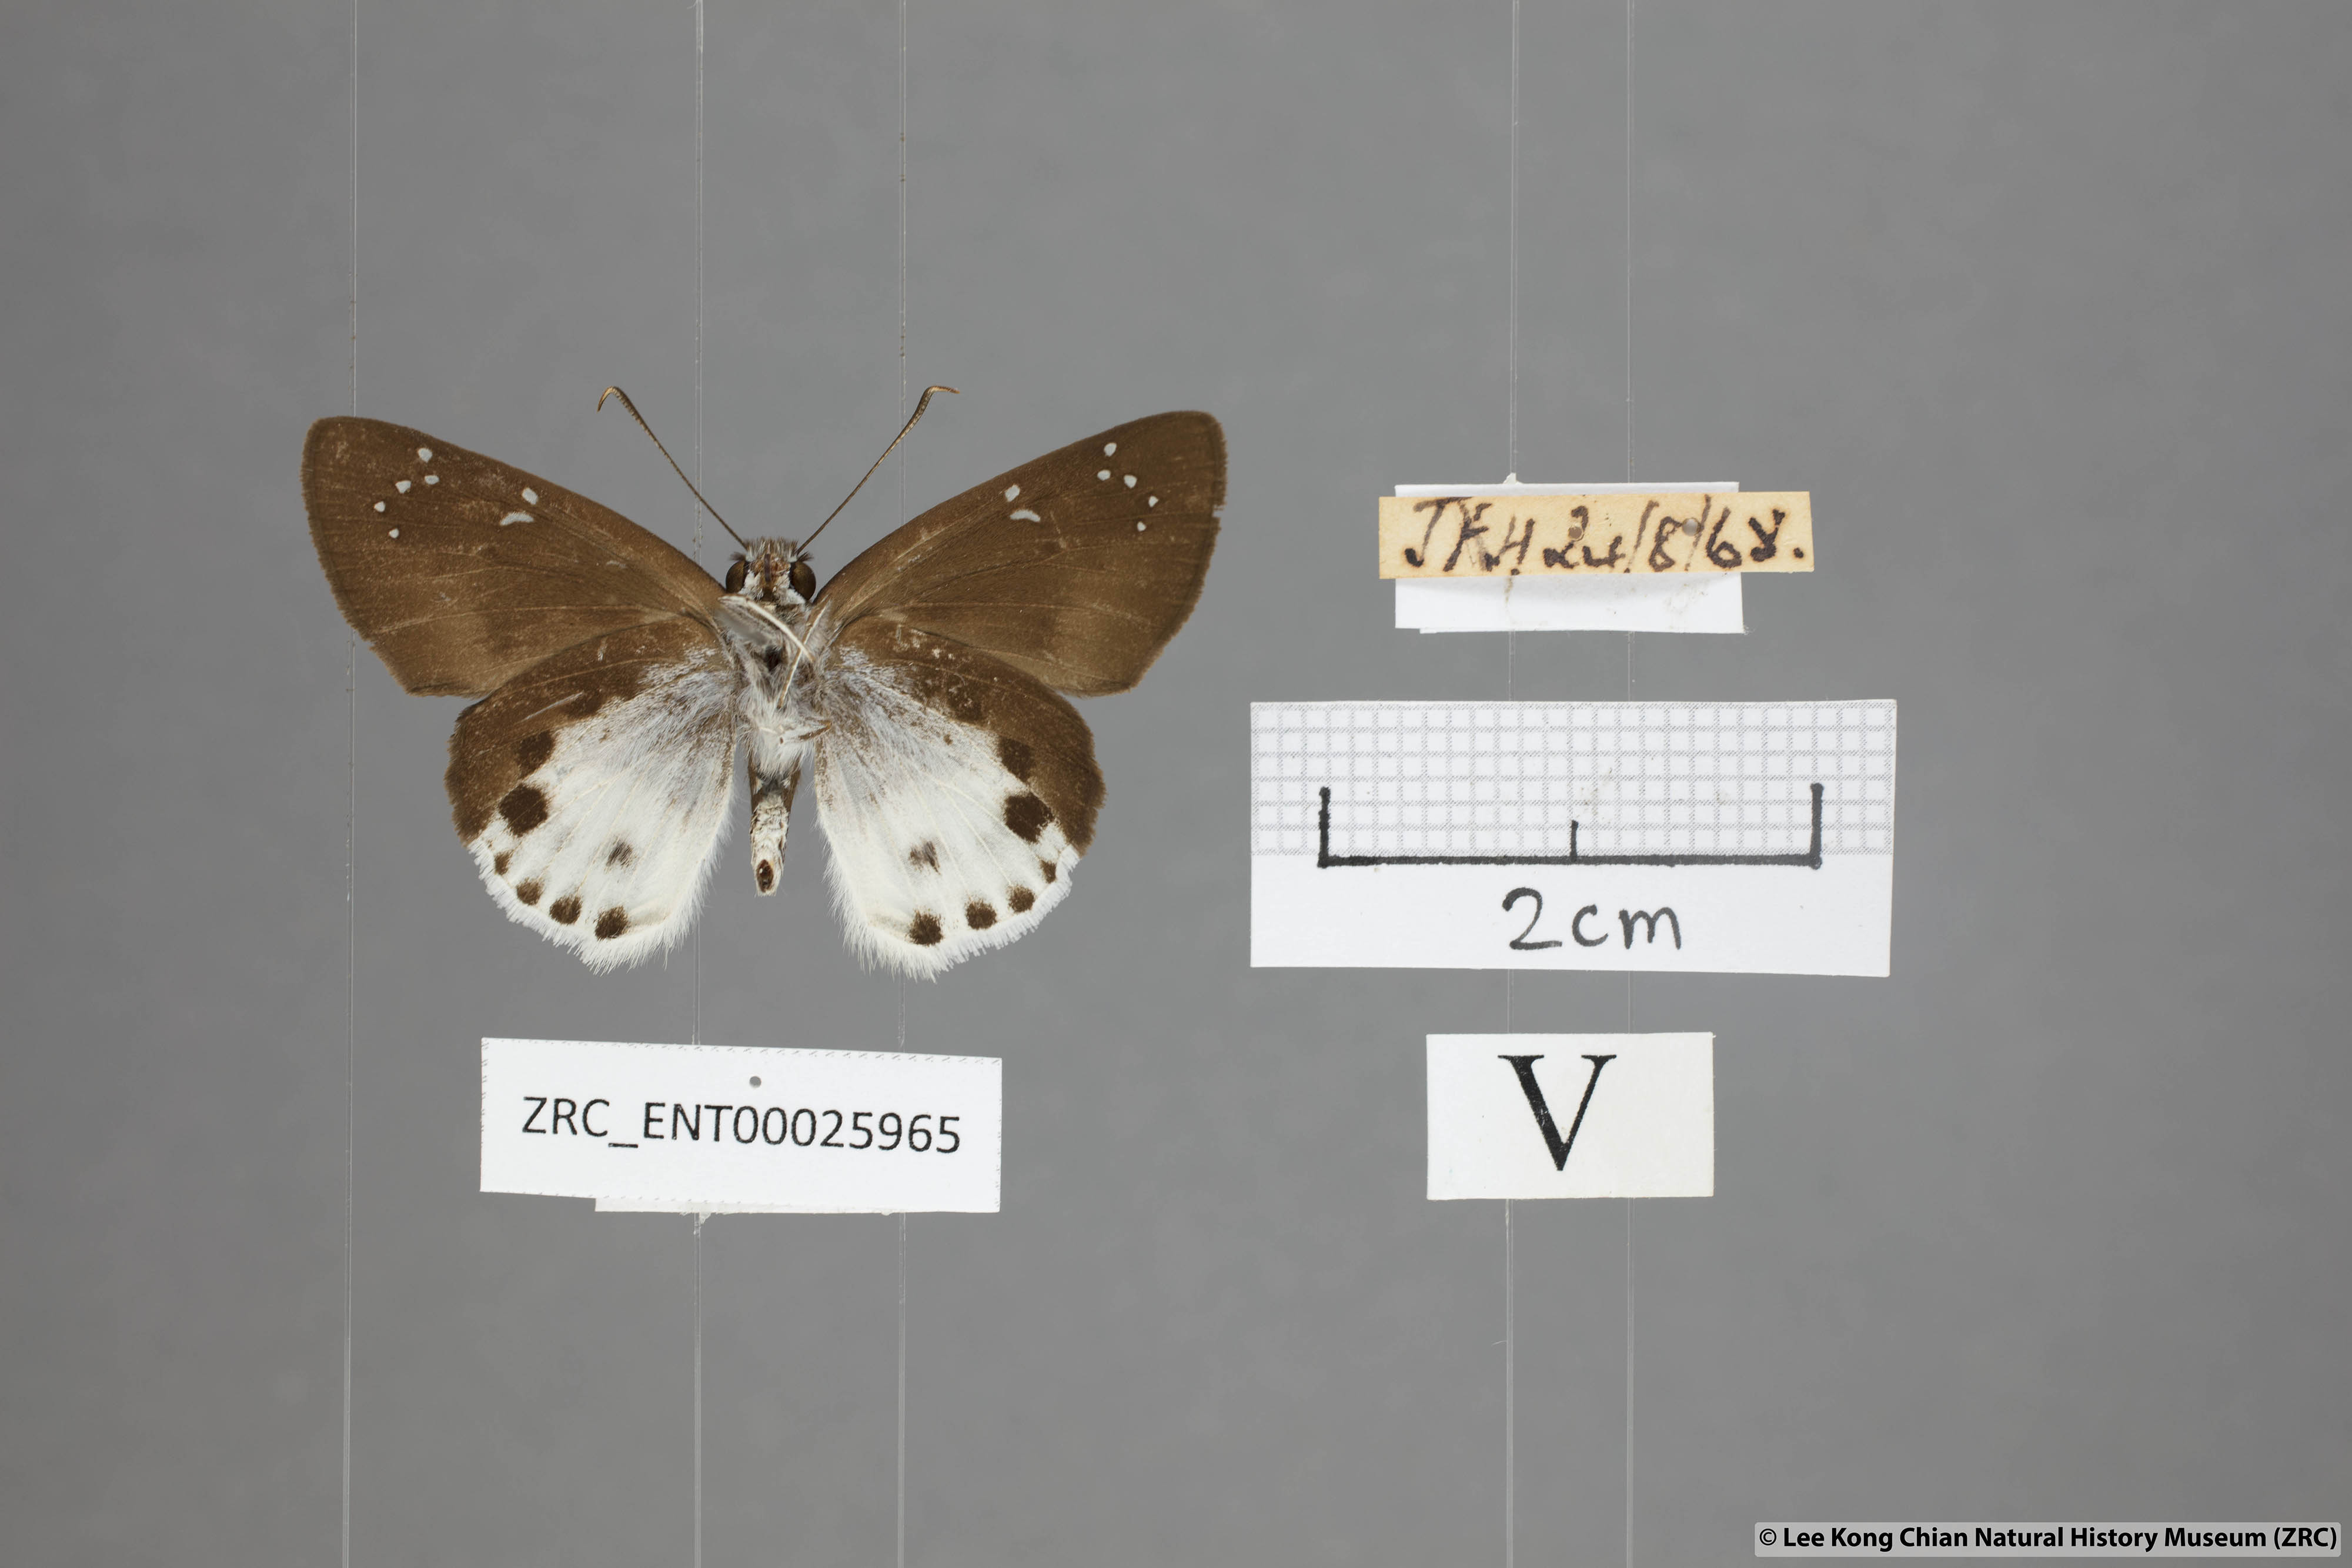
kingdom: Animalia
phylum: Arthropoda
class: Insecta
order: Lepidoptera
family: Hesperiidae
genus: Tagiades
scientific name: Tagiades cohaerens
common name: White-striped snow flat
